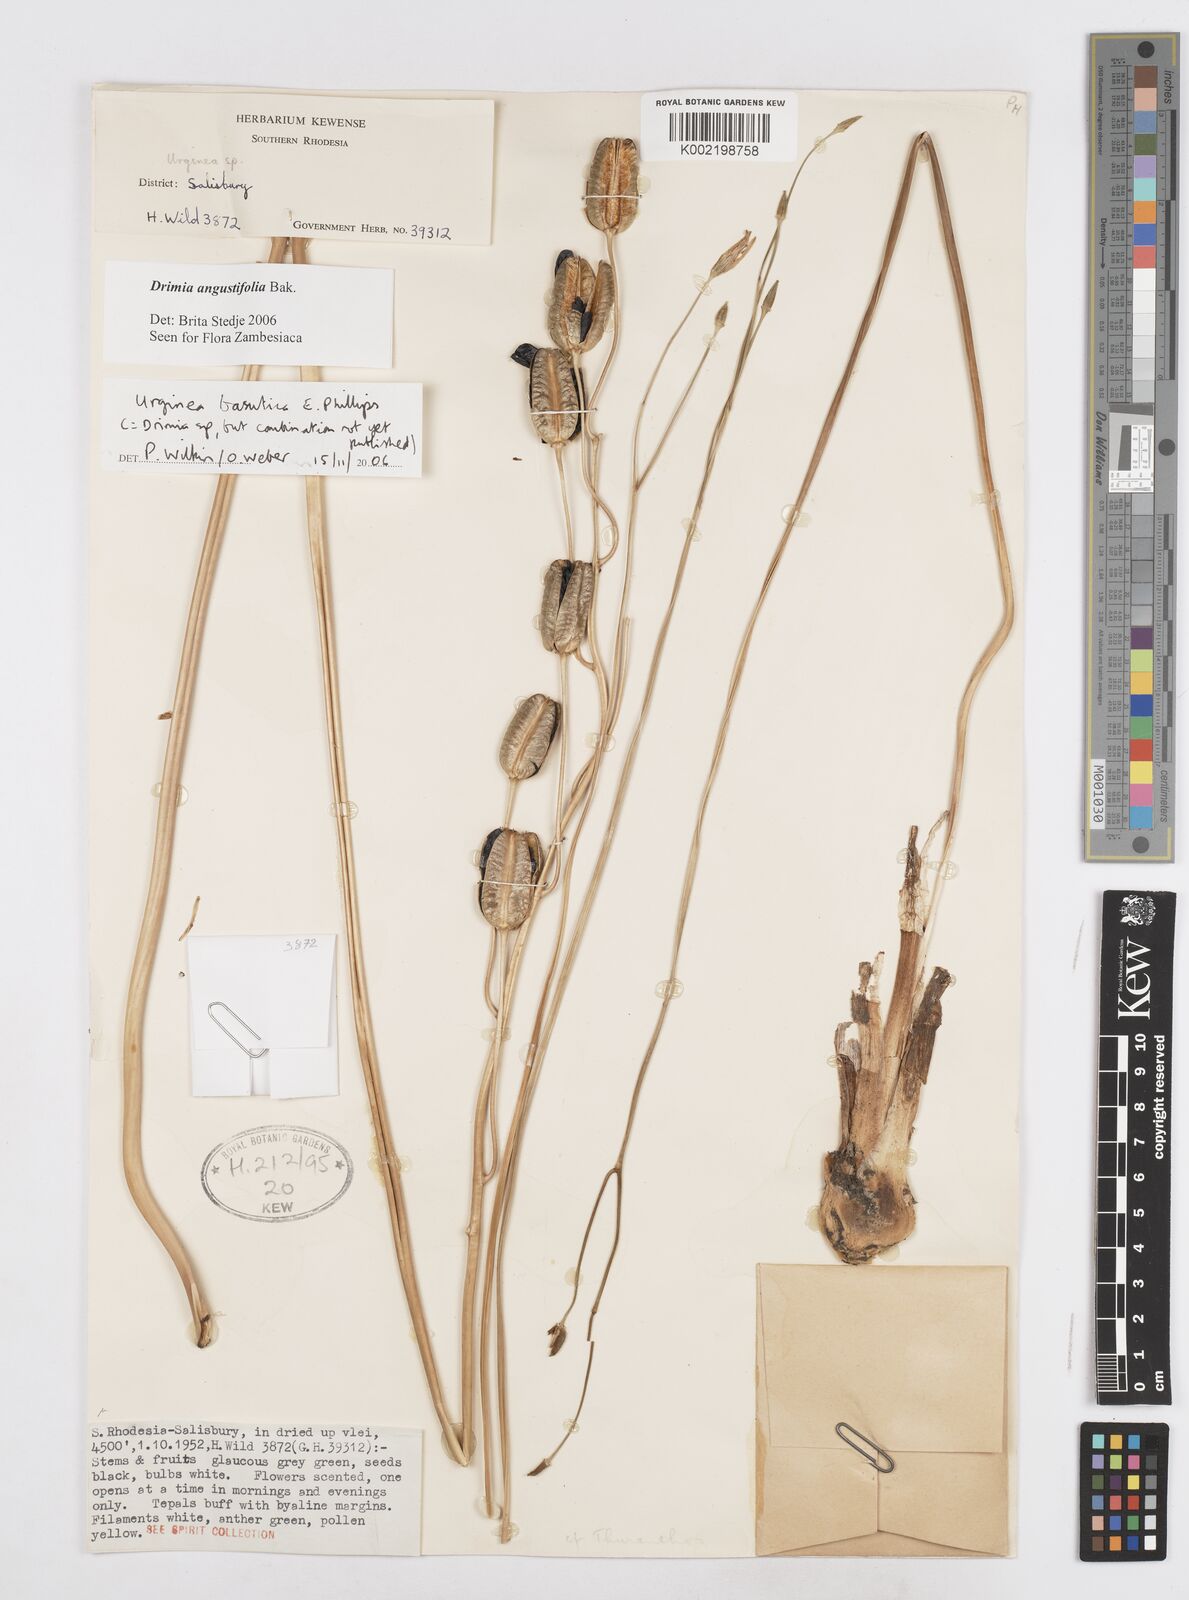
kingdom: Plantae
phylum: Tracheophyta
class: Liliopsida
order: Asparagales
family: Asparagaceae
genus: Drimia
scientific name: Drimia basutica
